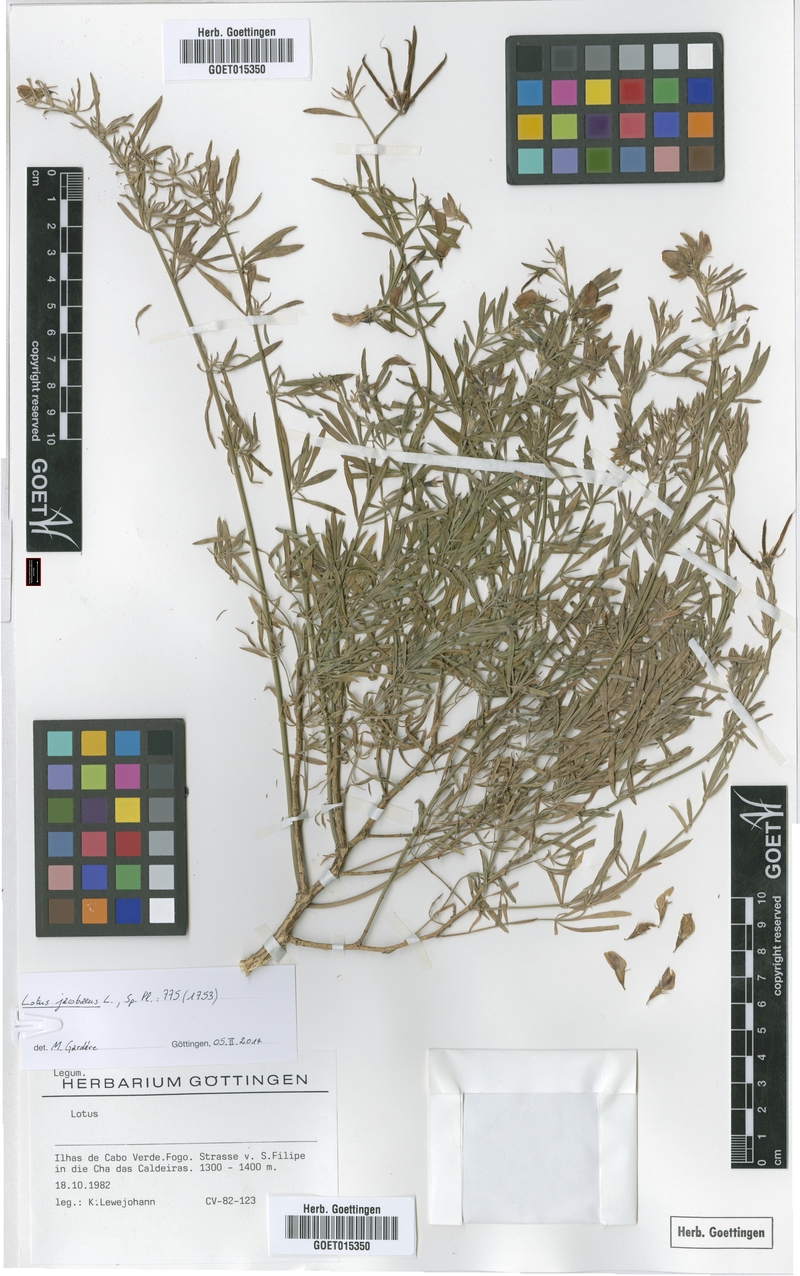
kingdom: Plantae
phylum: Tracheophyta
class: Magnoliopsida
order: Fabales
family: Fabaceae
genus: Lotus
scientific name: Lotus jacobaeus
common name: St. james's trefoil
